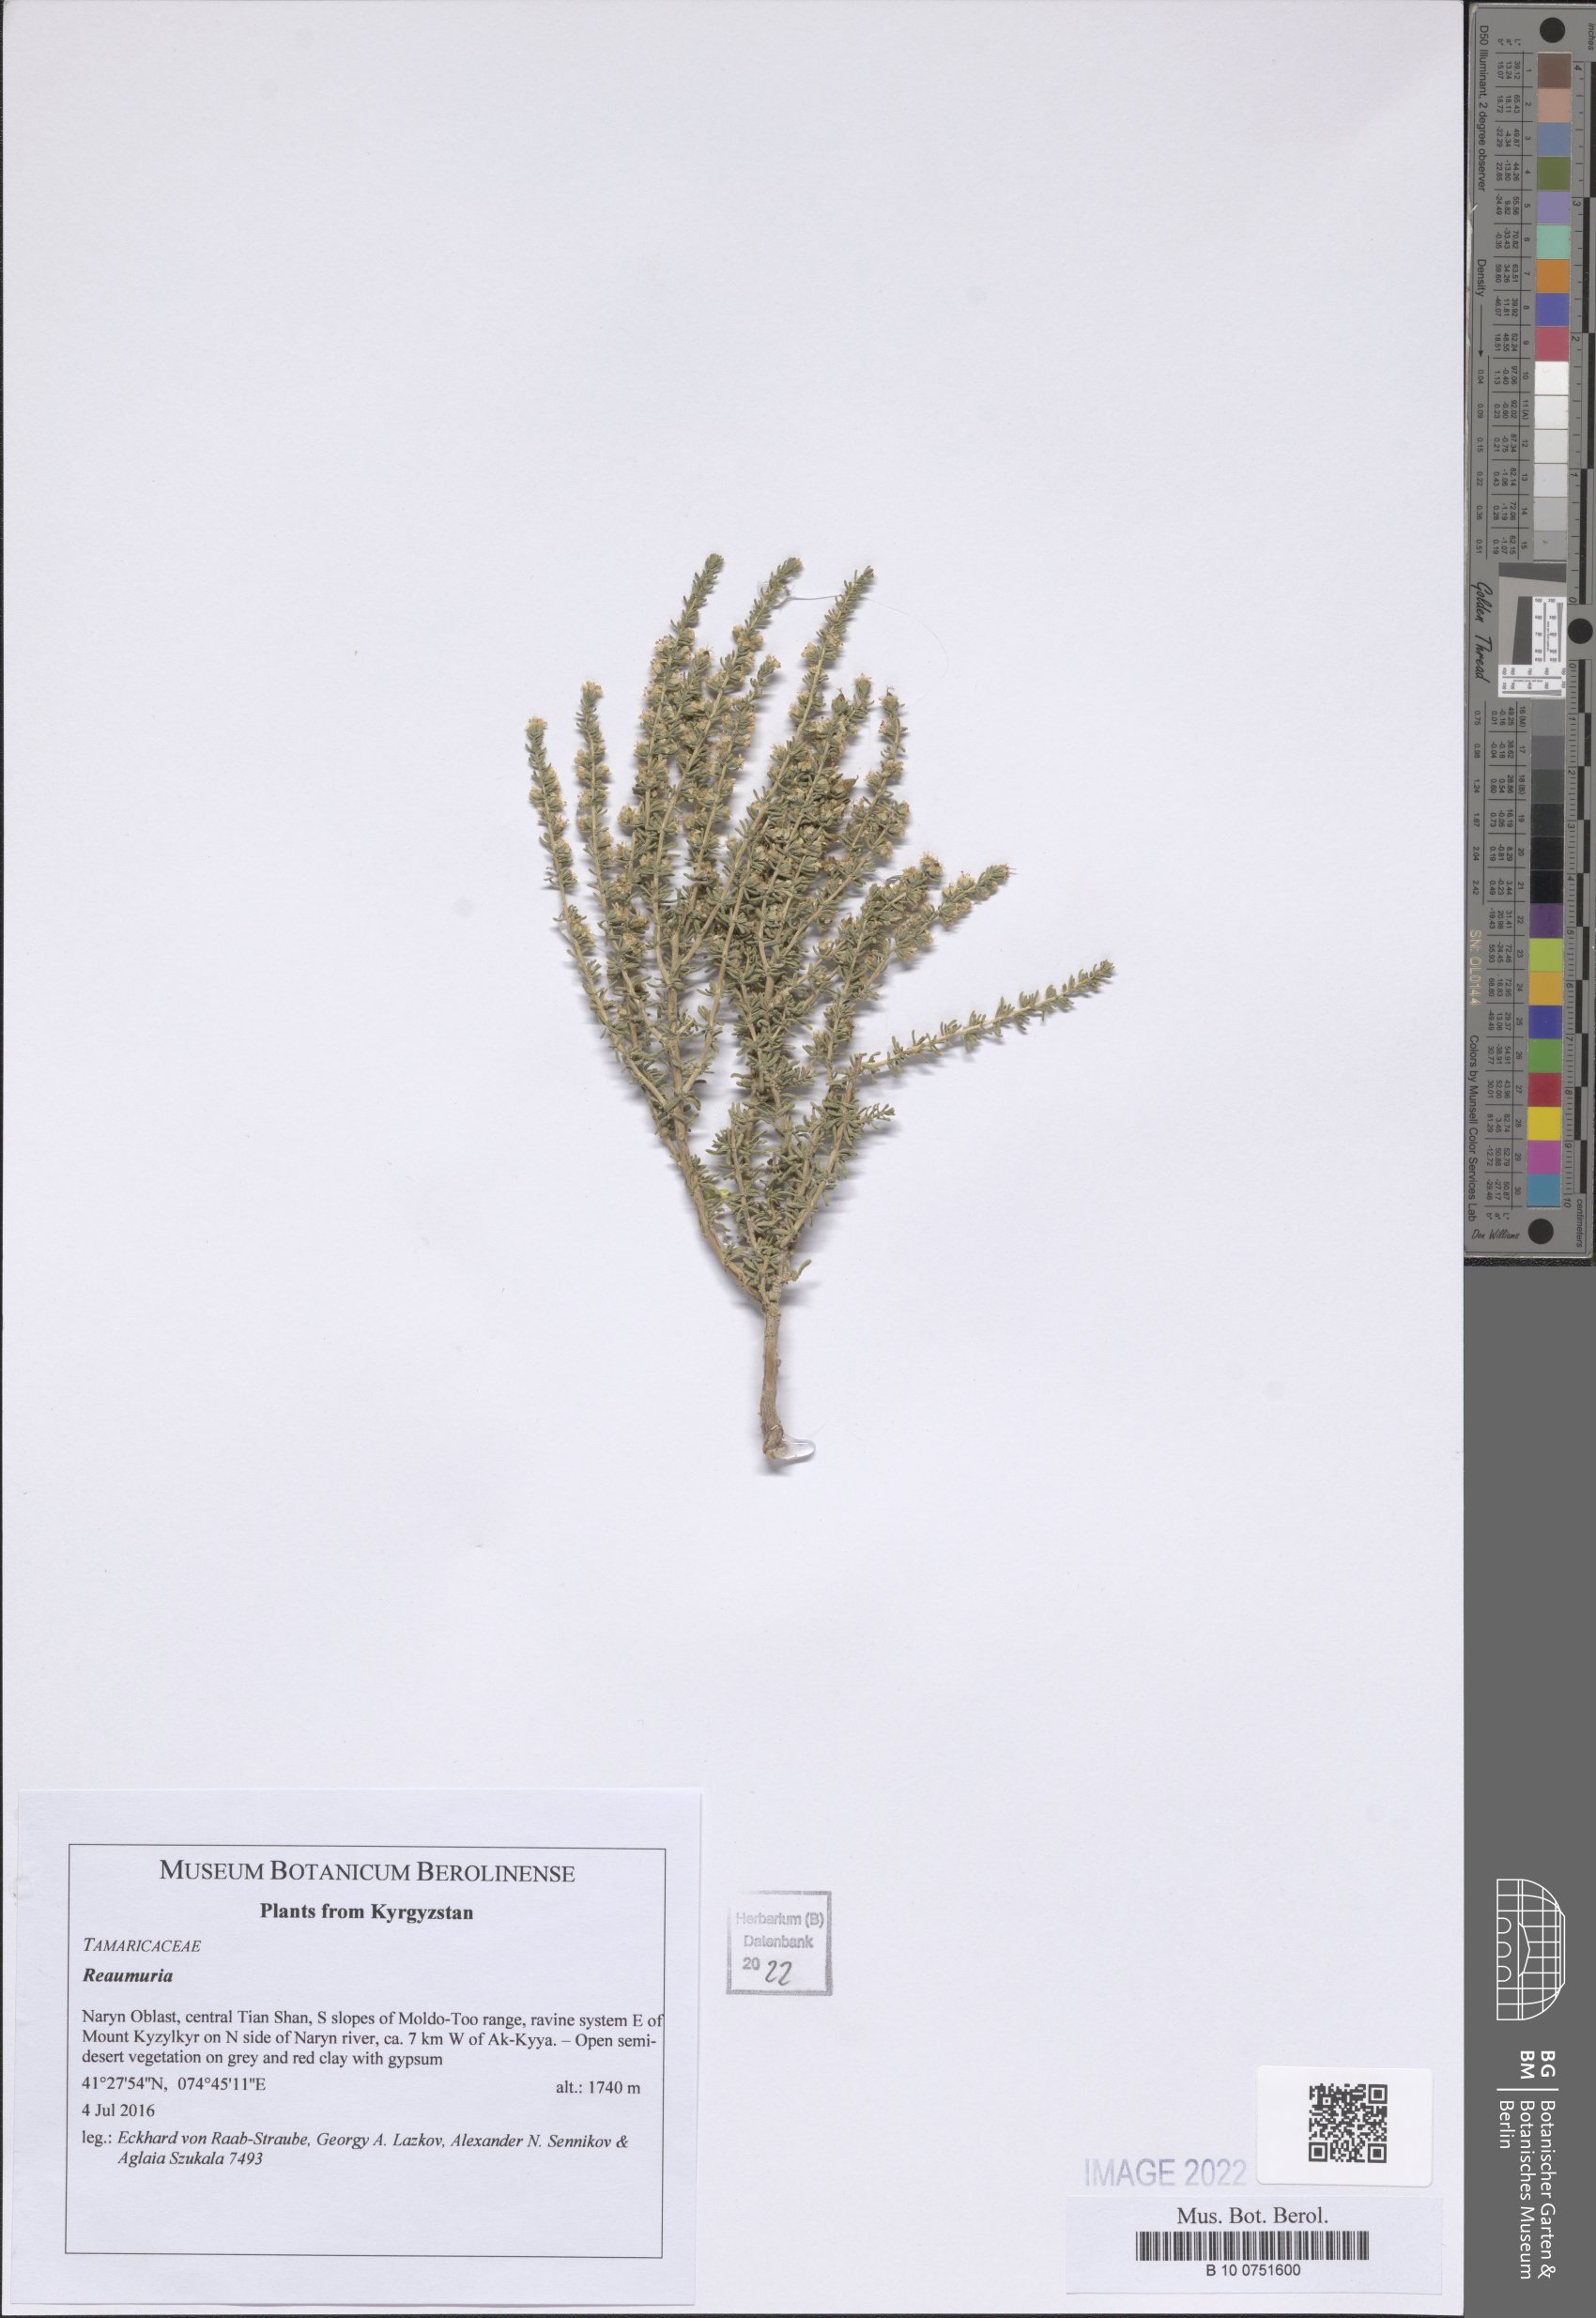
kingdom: Plantae
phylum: Tracheophyta
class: Magnoliopsida
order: Caryophyllales
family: Tamaricaceae
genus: Reaumuria
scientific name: Reaumuria
